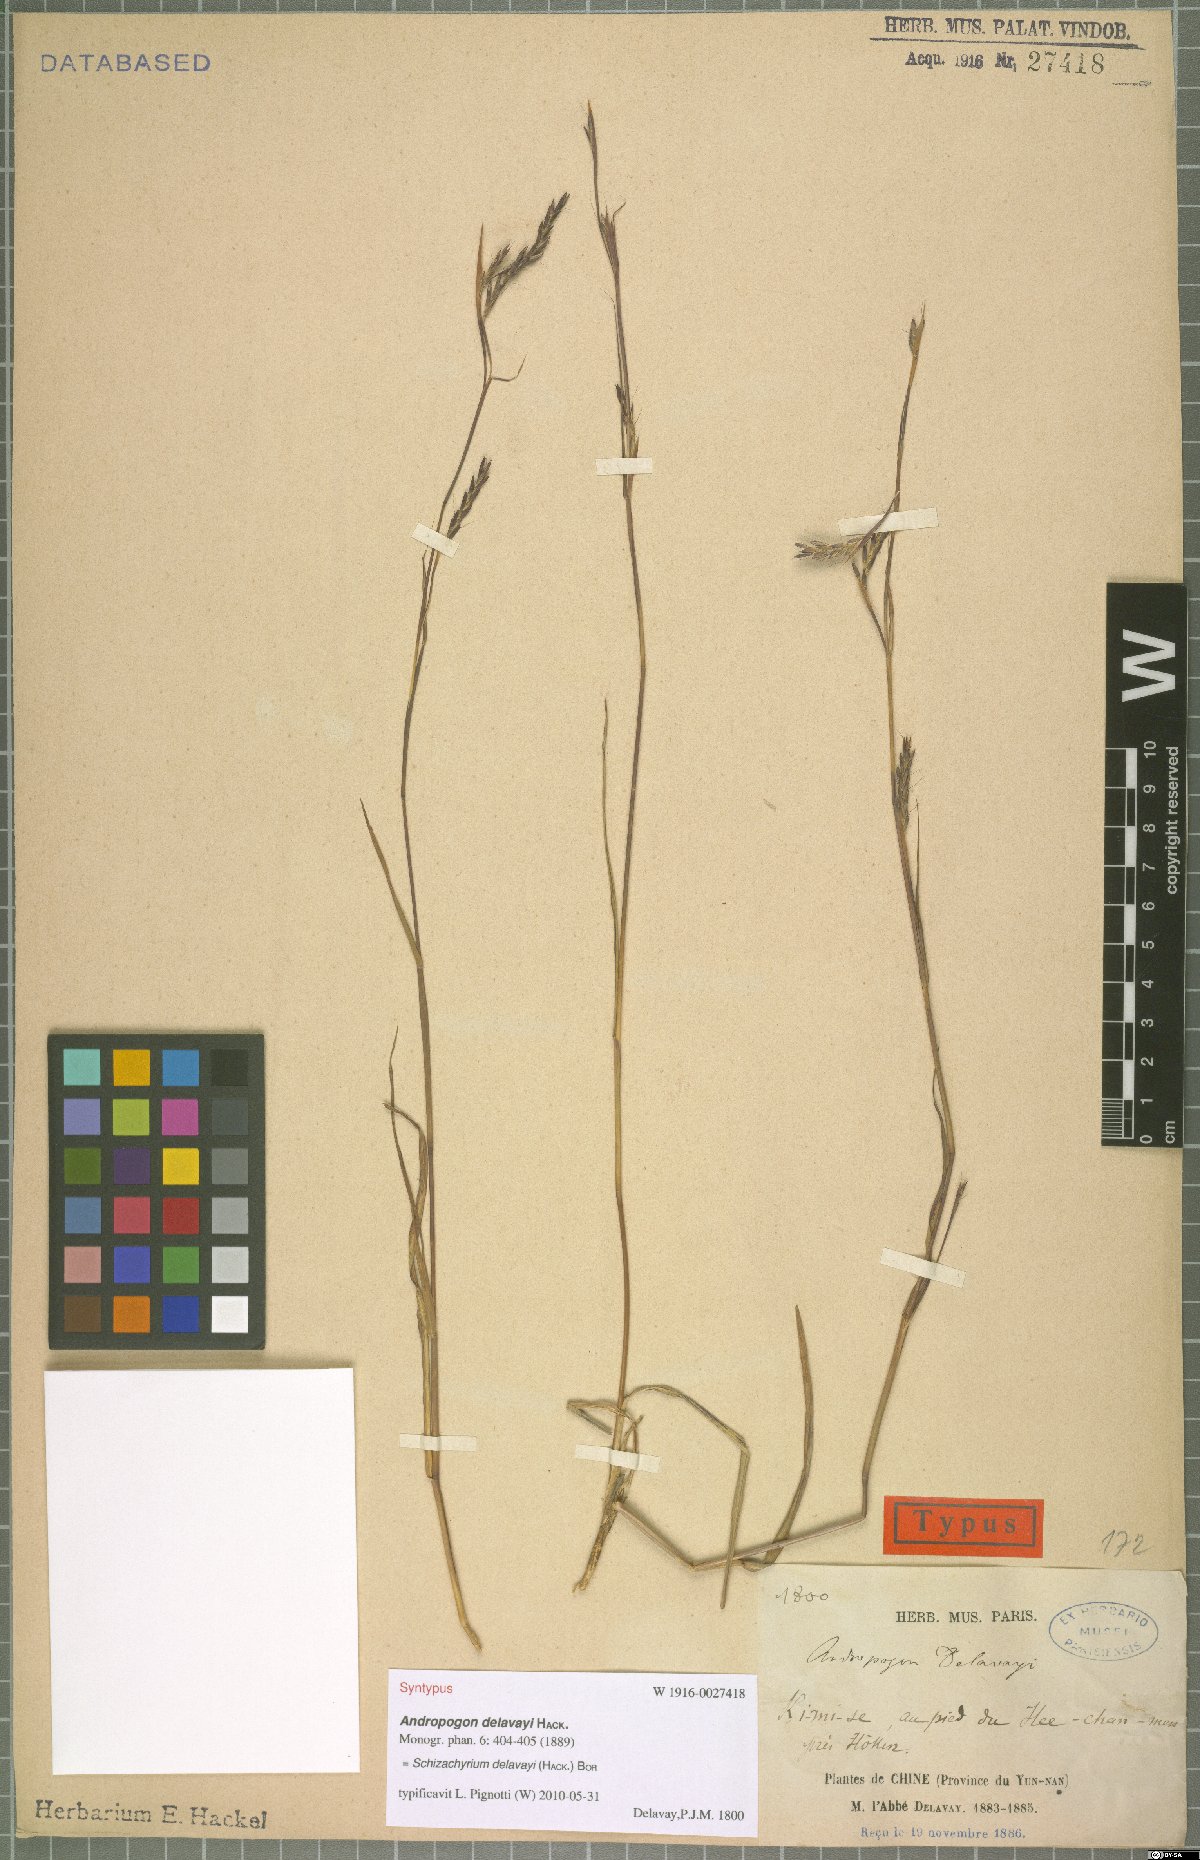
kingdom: Plantae
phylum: Tracheophyta
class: Liliopsida
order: Poales
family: Poaceae
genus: Schizachyrium
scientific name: Schizachyrium delavayi
